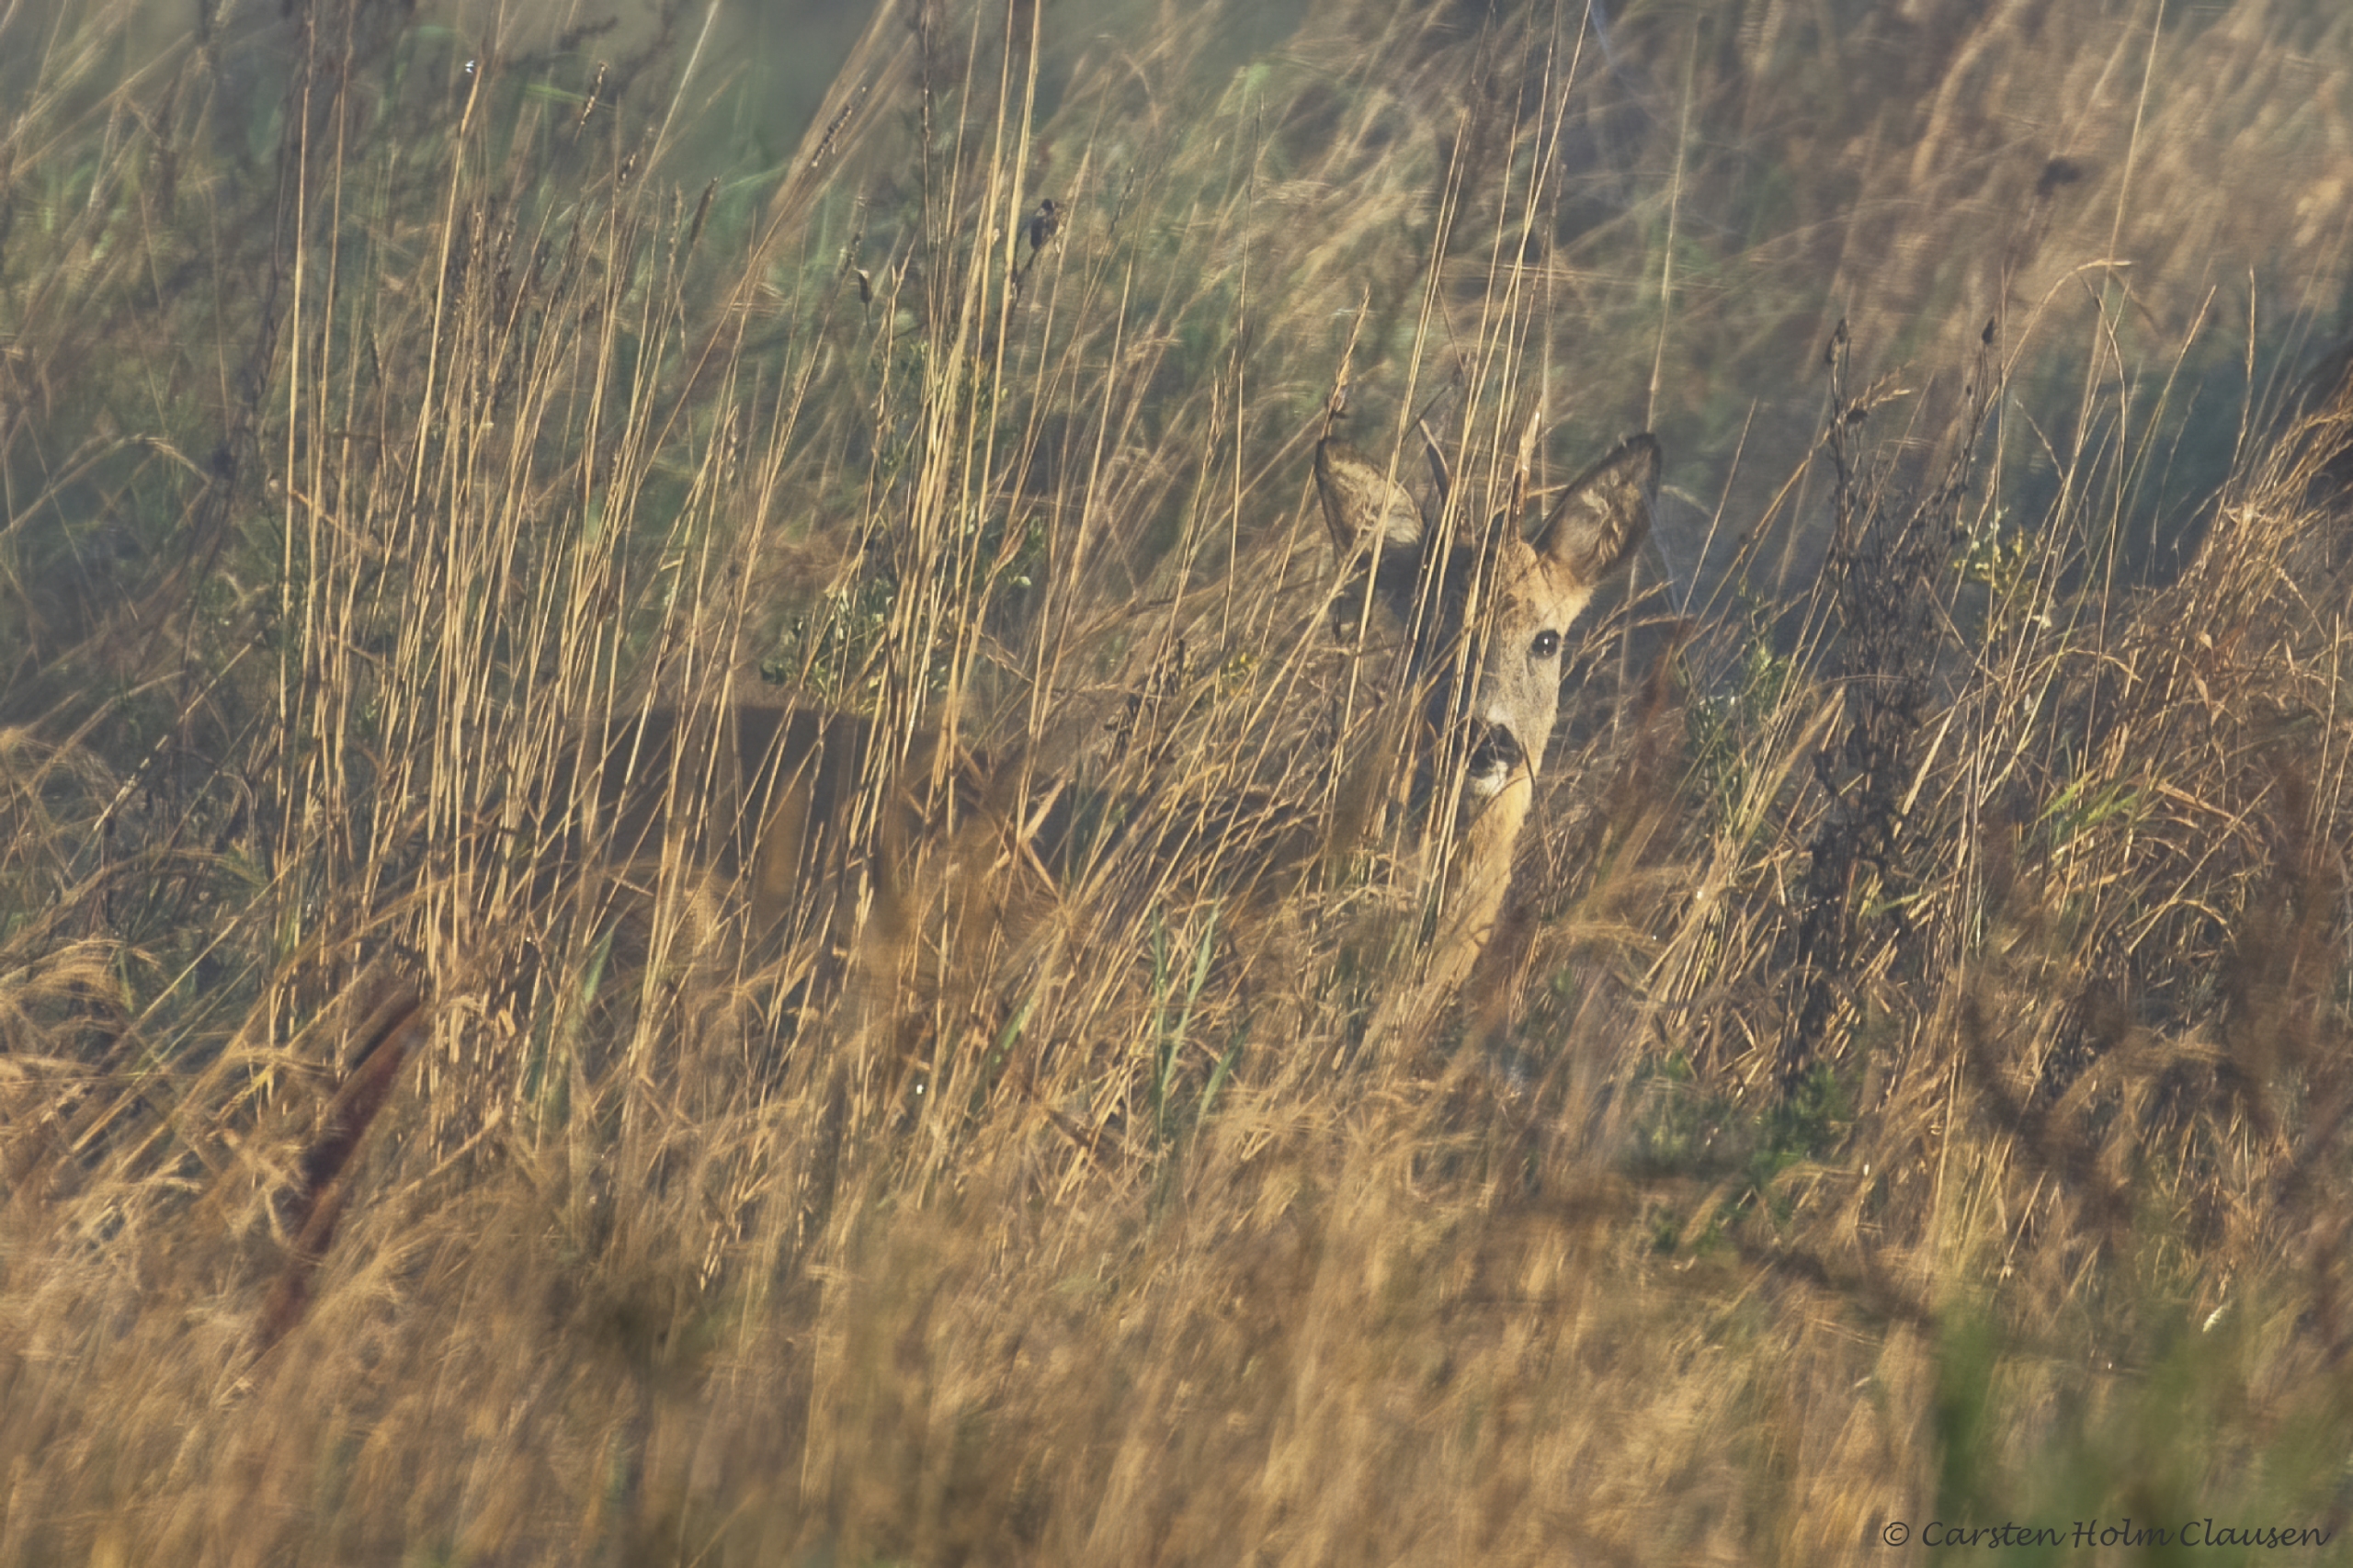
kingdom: Animalia
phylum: Chordata
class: Mammalia
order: Artiodactyla
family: Cervidae
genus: Capreolus
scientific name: Capreolus capreolus
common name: Rådyr
